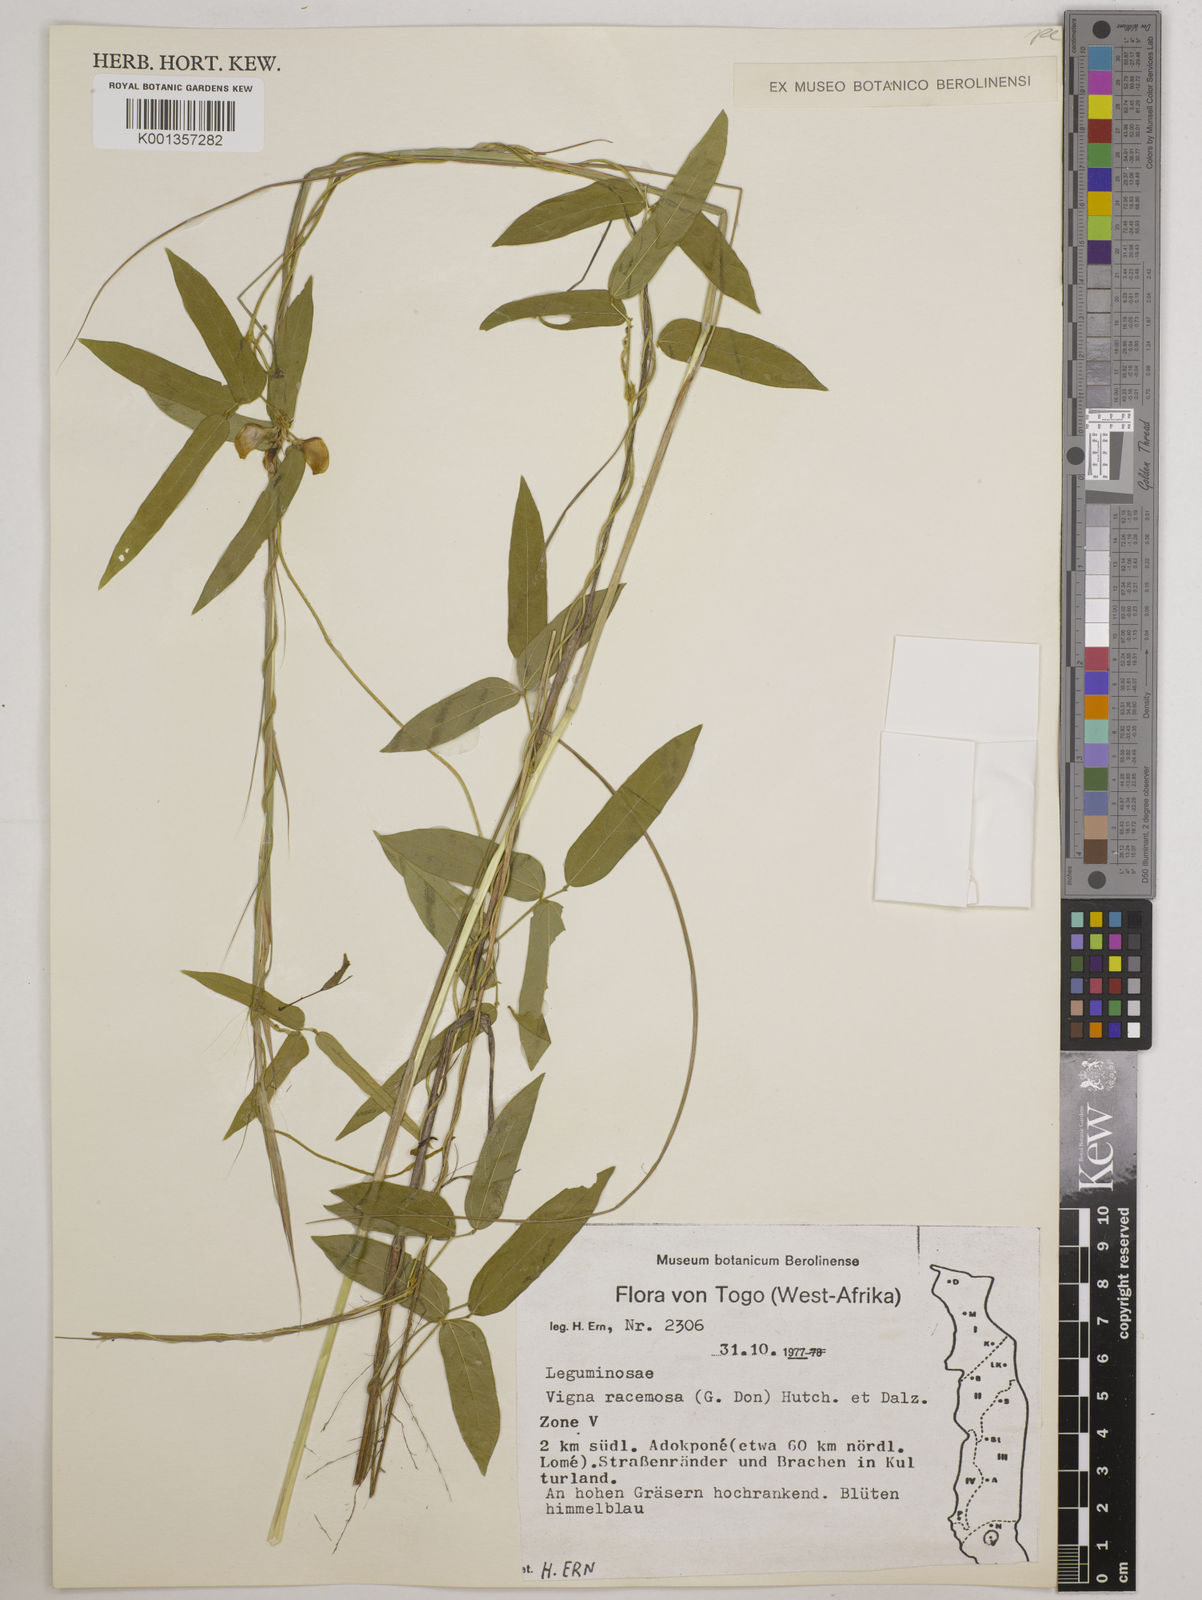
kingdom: Plantae
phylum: Tracheophyta
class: Magnoliopsida
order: Fabales
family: Fabaceae
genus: Vigna
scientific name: Vigna racemosa
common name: Beans not eaten
